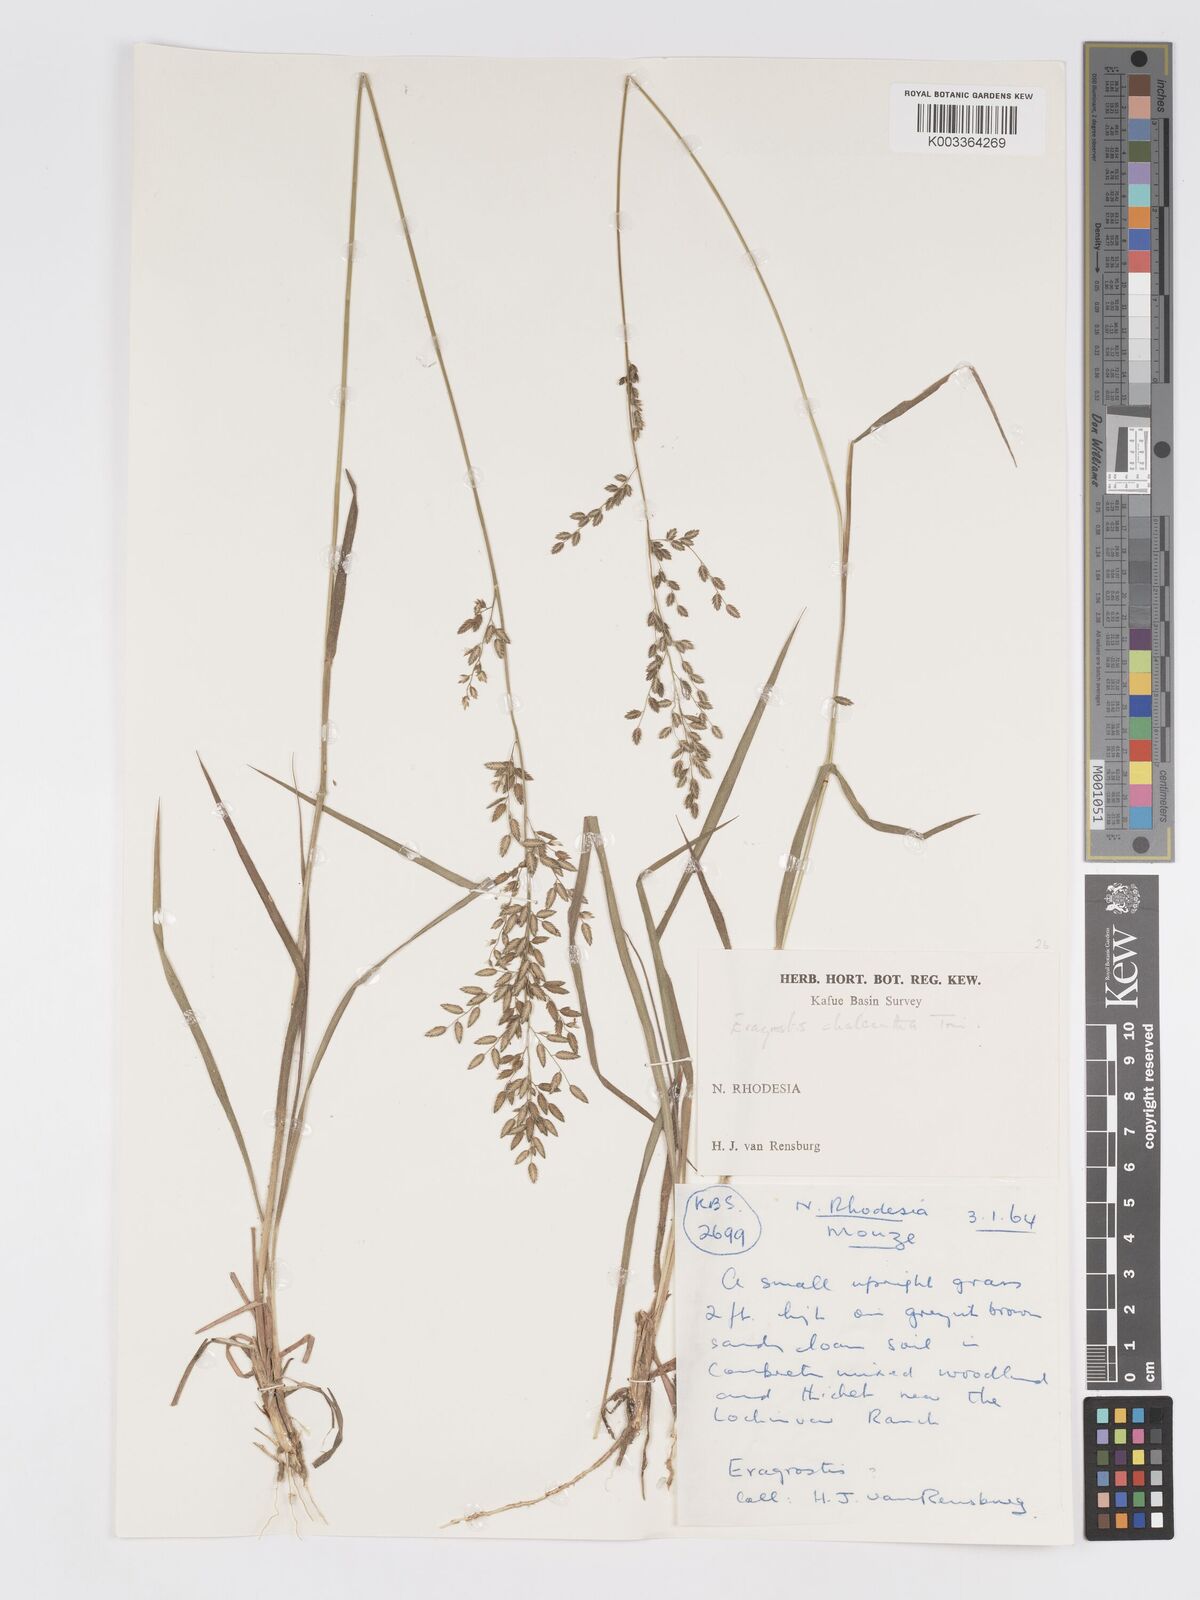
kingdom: Plantae
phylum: Tracheophyta
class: Liliopsida
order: Poales
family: Poaceae
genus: Eragrostis
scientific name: Eragrostis racemosa
